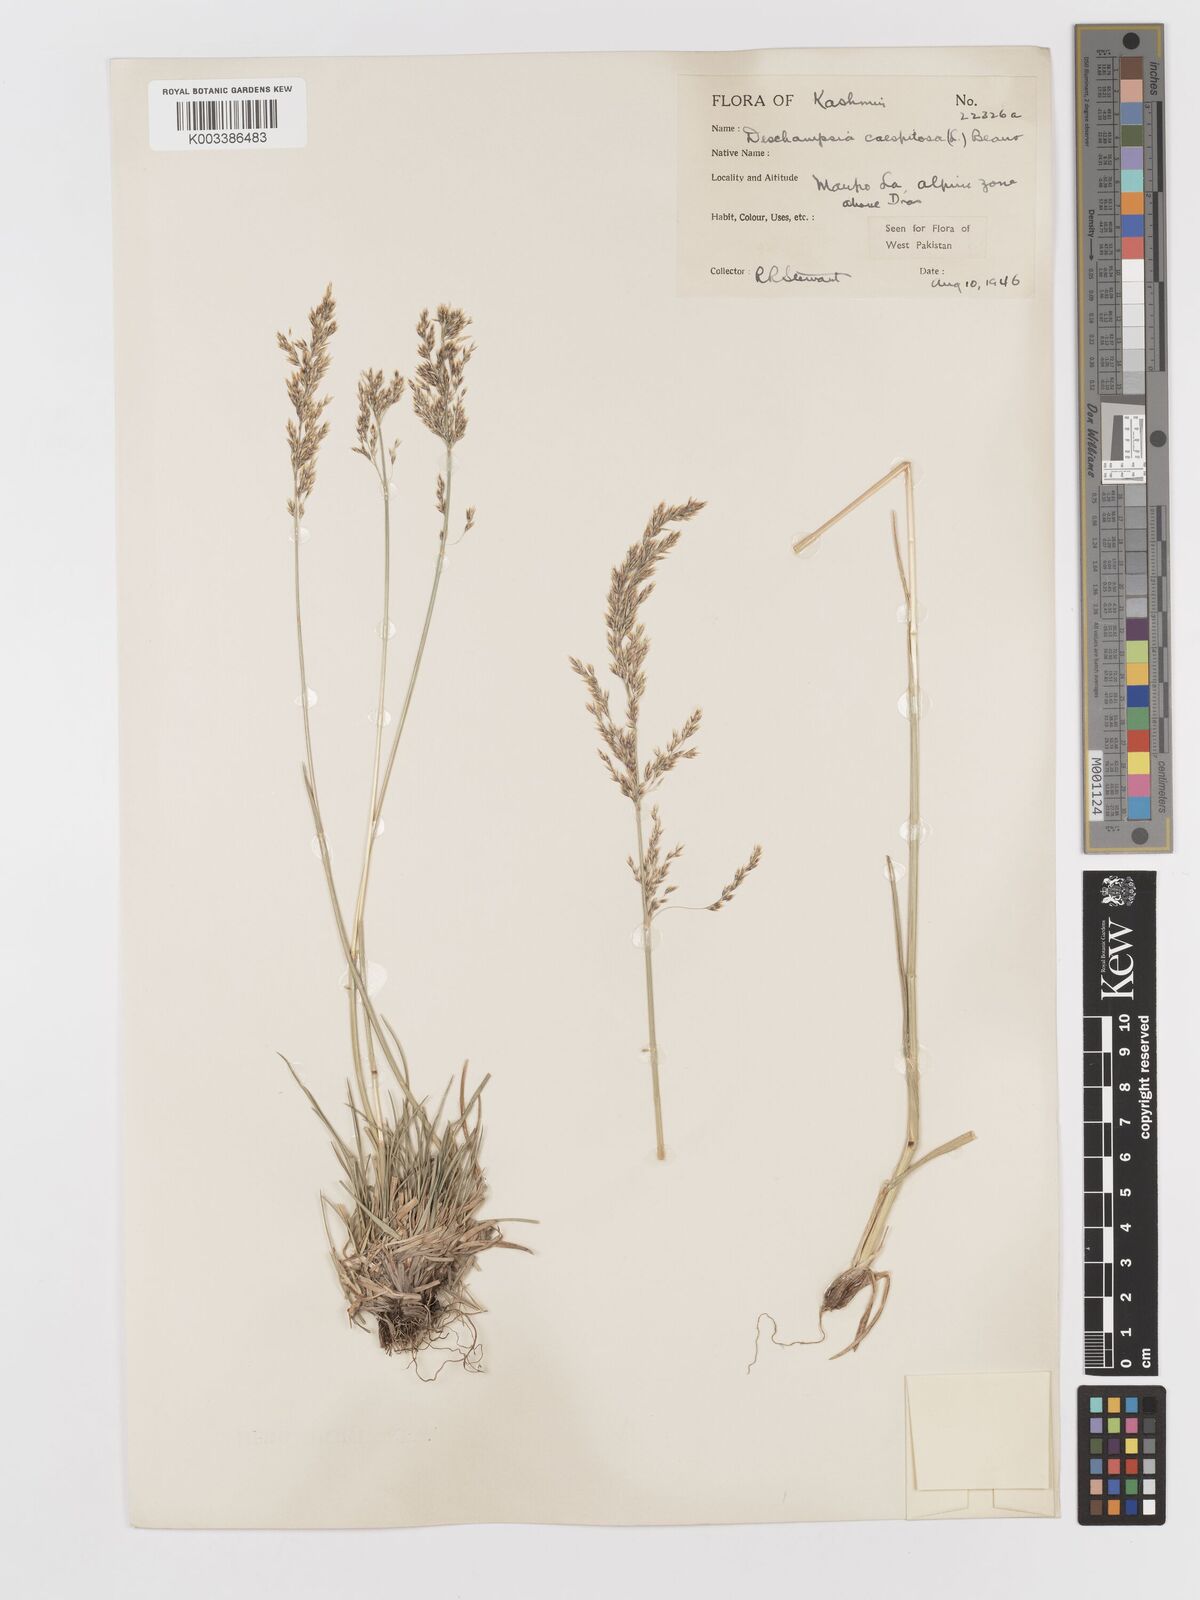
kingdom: Plantae
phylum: Tracheophyta
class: Liliopsida
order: Poales
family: Poaceae
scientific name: Poaceae
